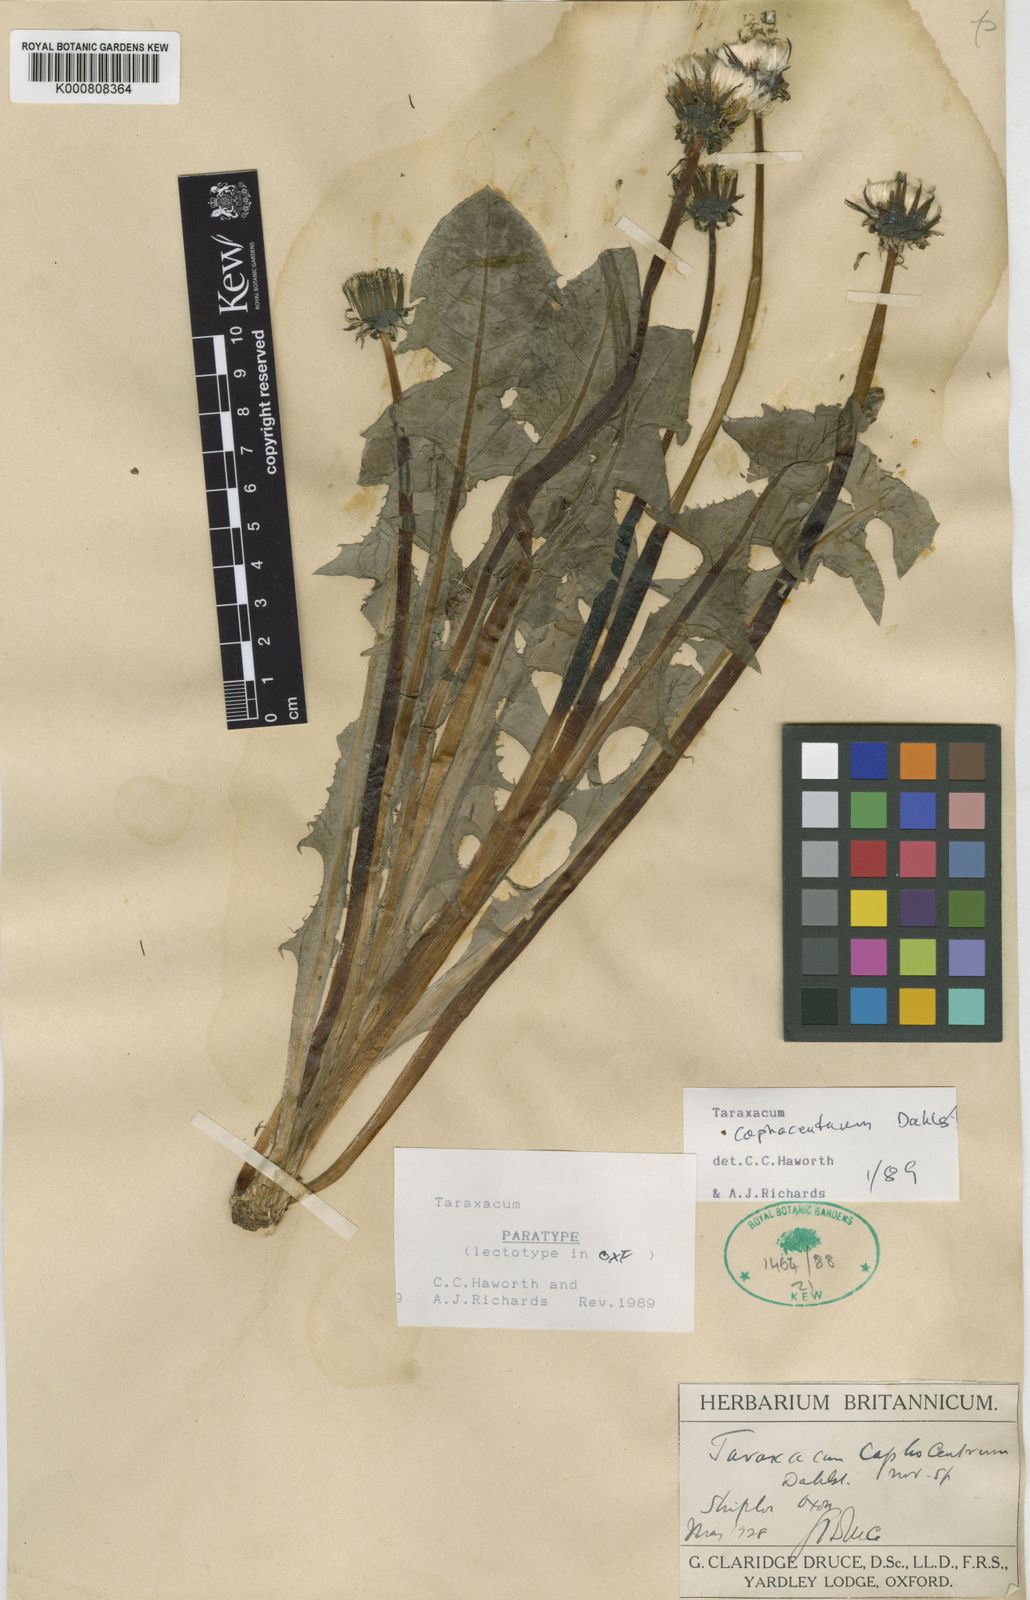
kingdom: Plantae
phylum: Tracheophyta
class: Magnoliopsida
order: Asterales
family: Asteraceae
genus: Taraxacum
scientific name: Taraxacum caphocentrum
